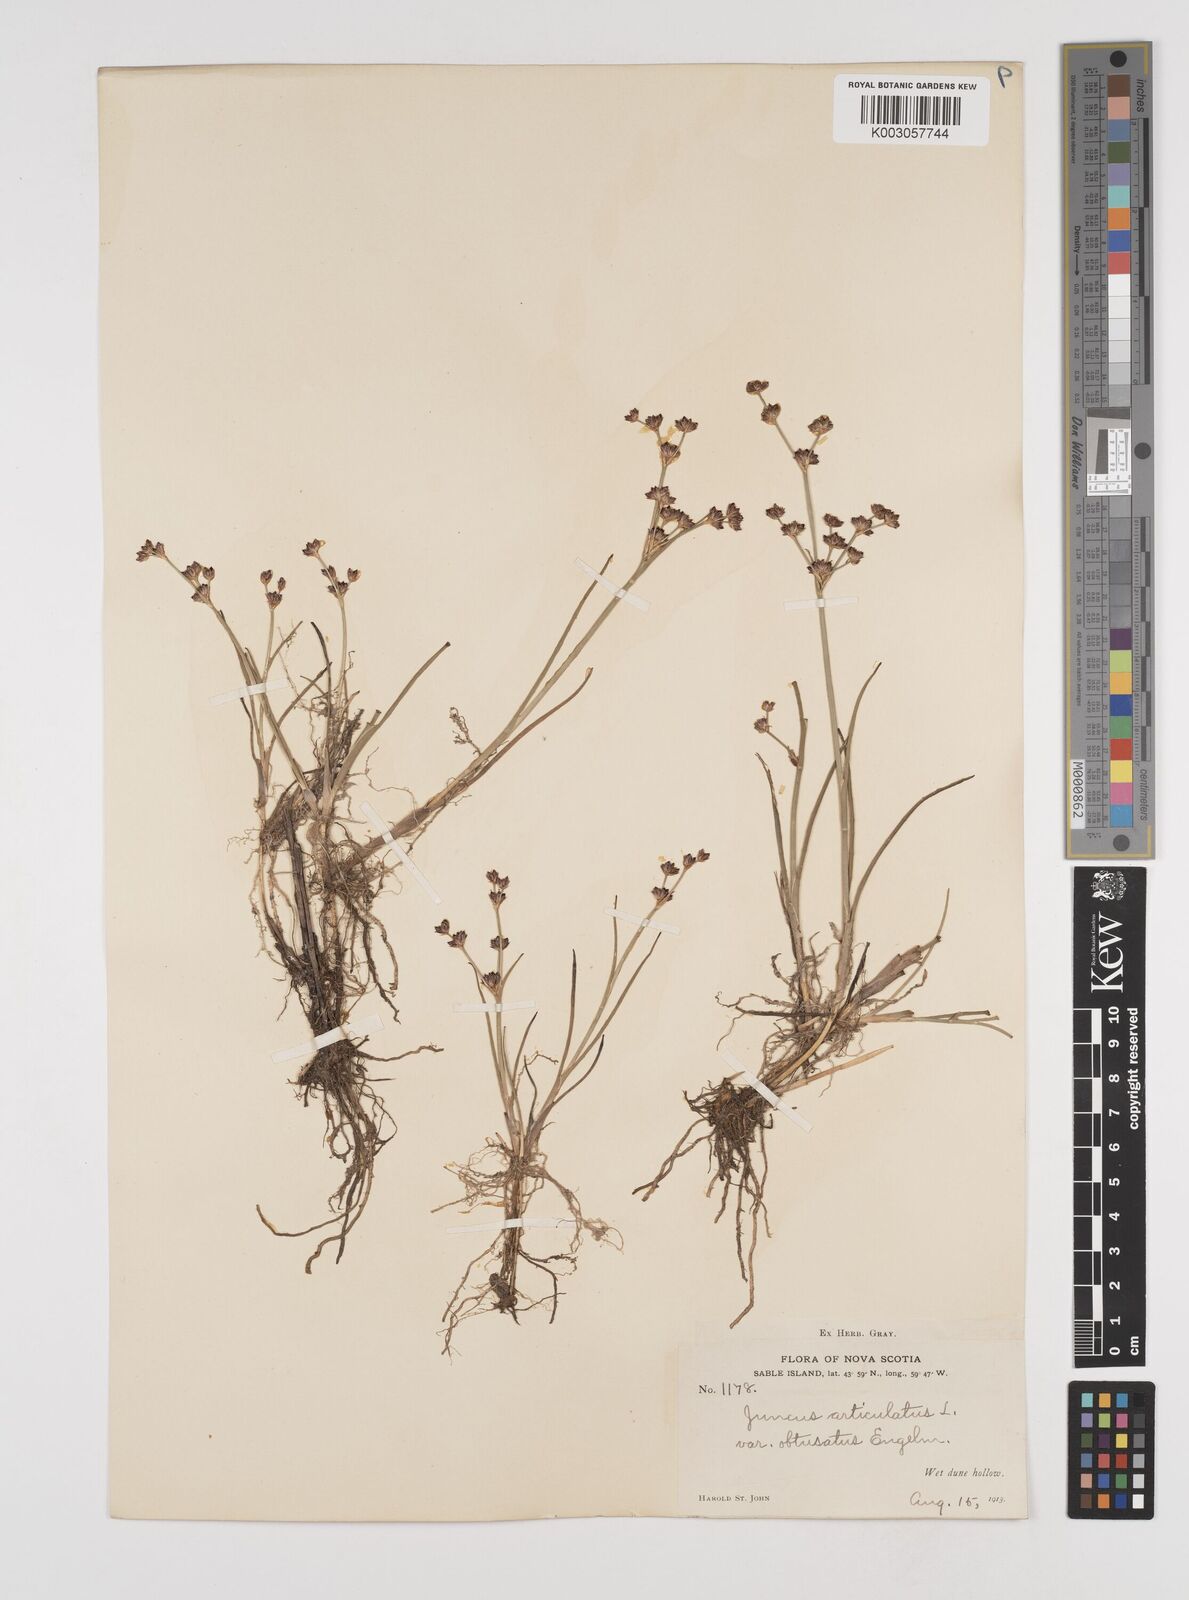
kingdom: Plantae
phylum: Tracheophyta
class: Liliopsida
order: Poales
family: Juncaceae
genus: Juncus
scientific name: Juncus articulatus
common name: Jointed rush
